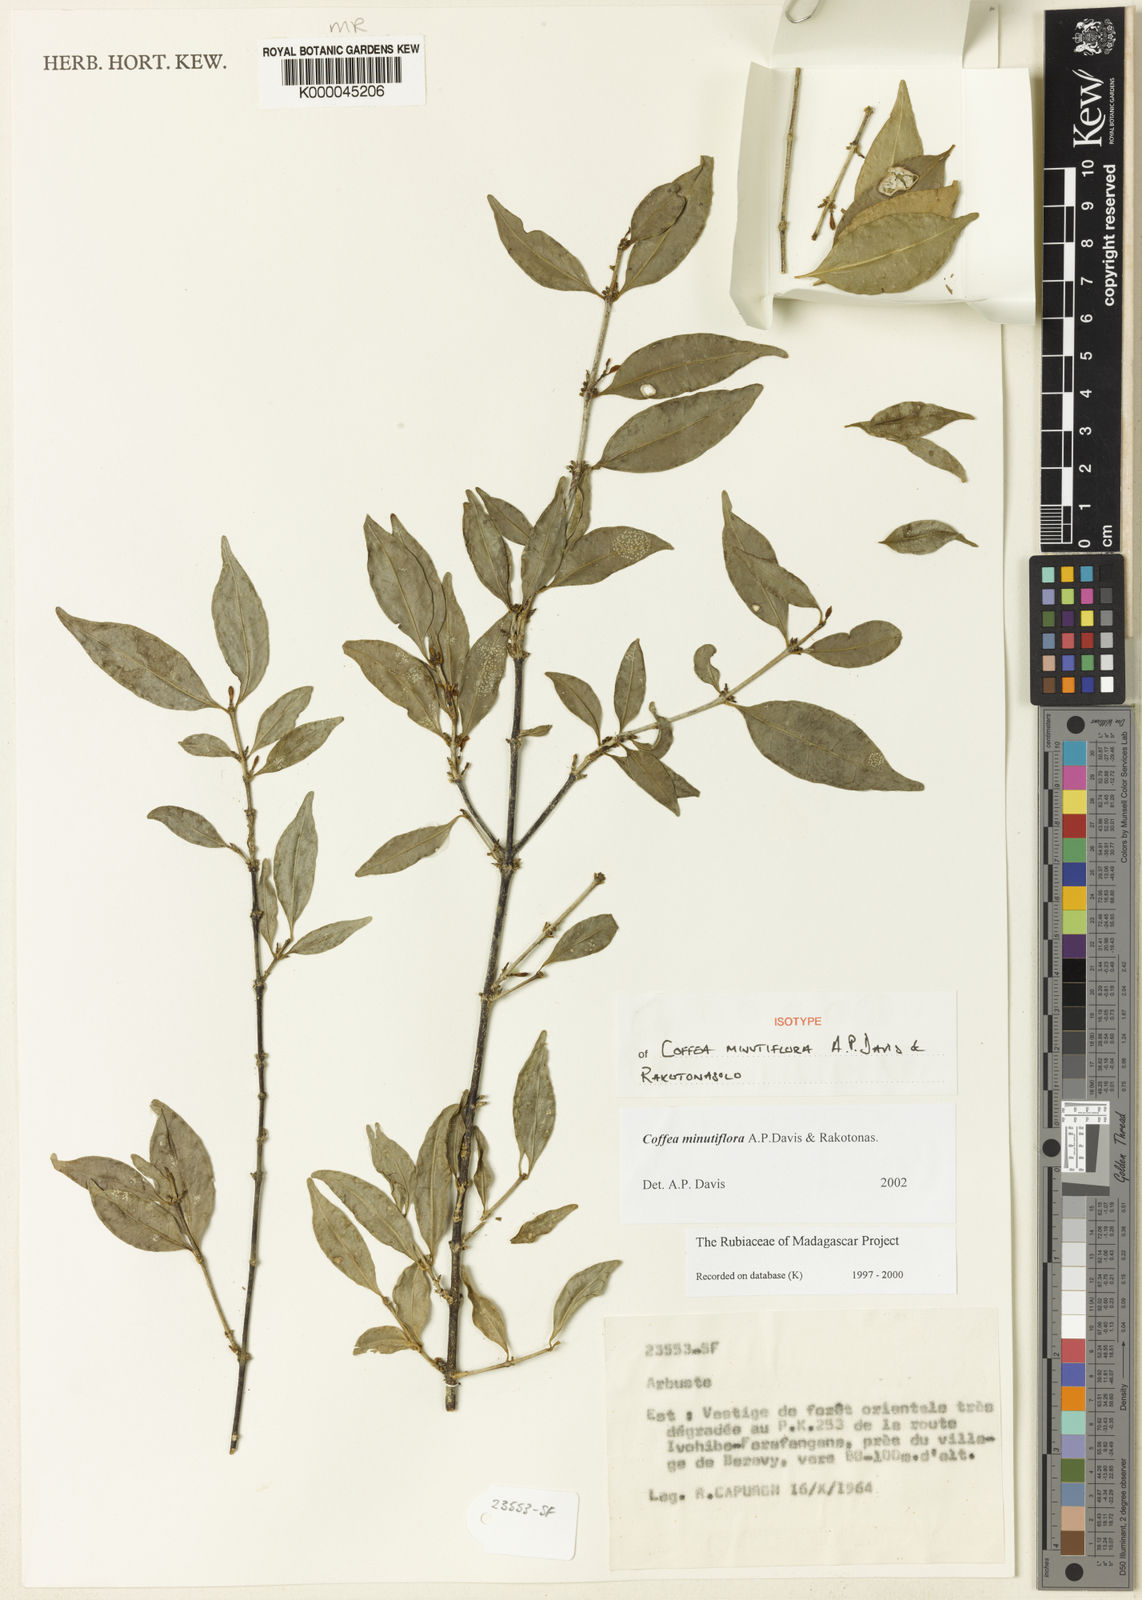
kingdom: Plantae
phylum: Tracheophyta
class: Magnoliopsida
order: Gentianales
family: Rubiaceae
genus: Coffea
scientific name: Coffea minutiflora
